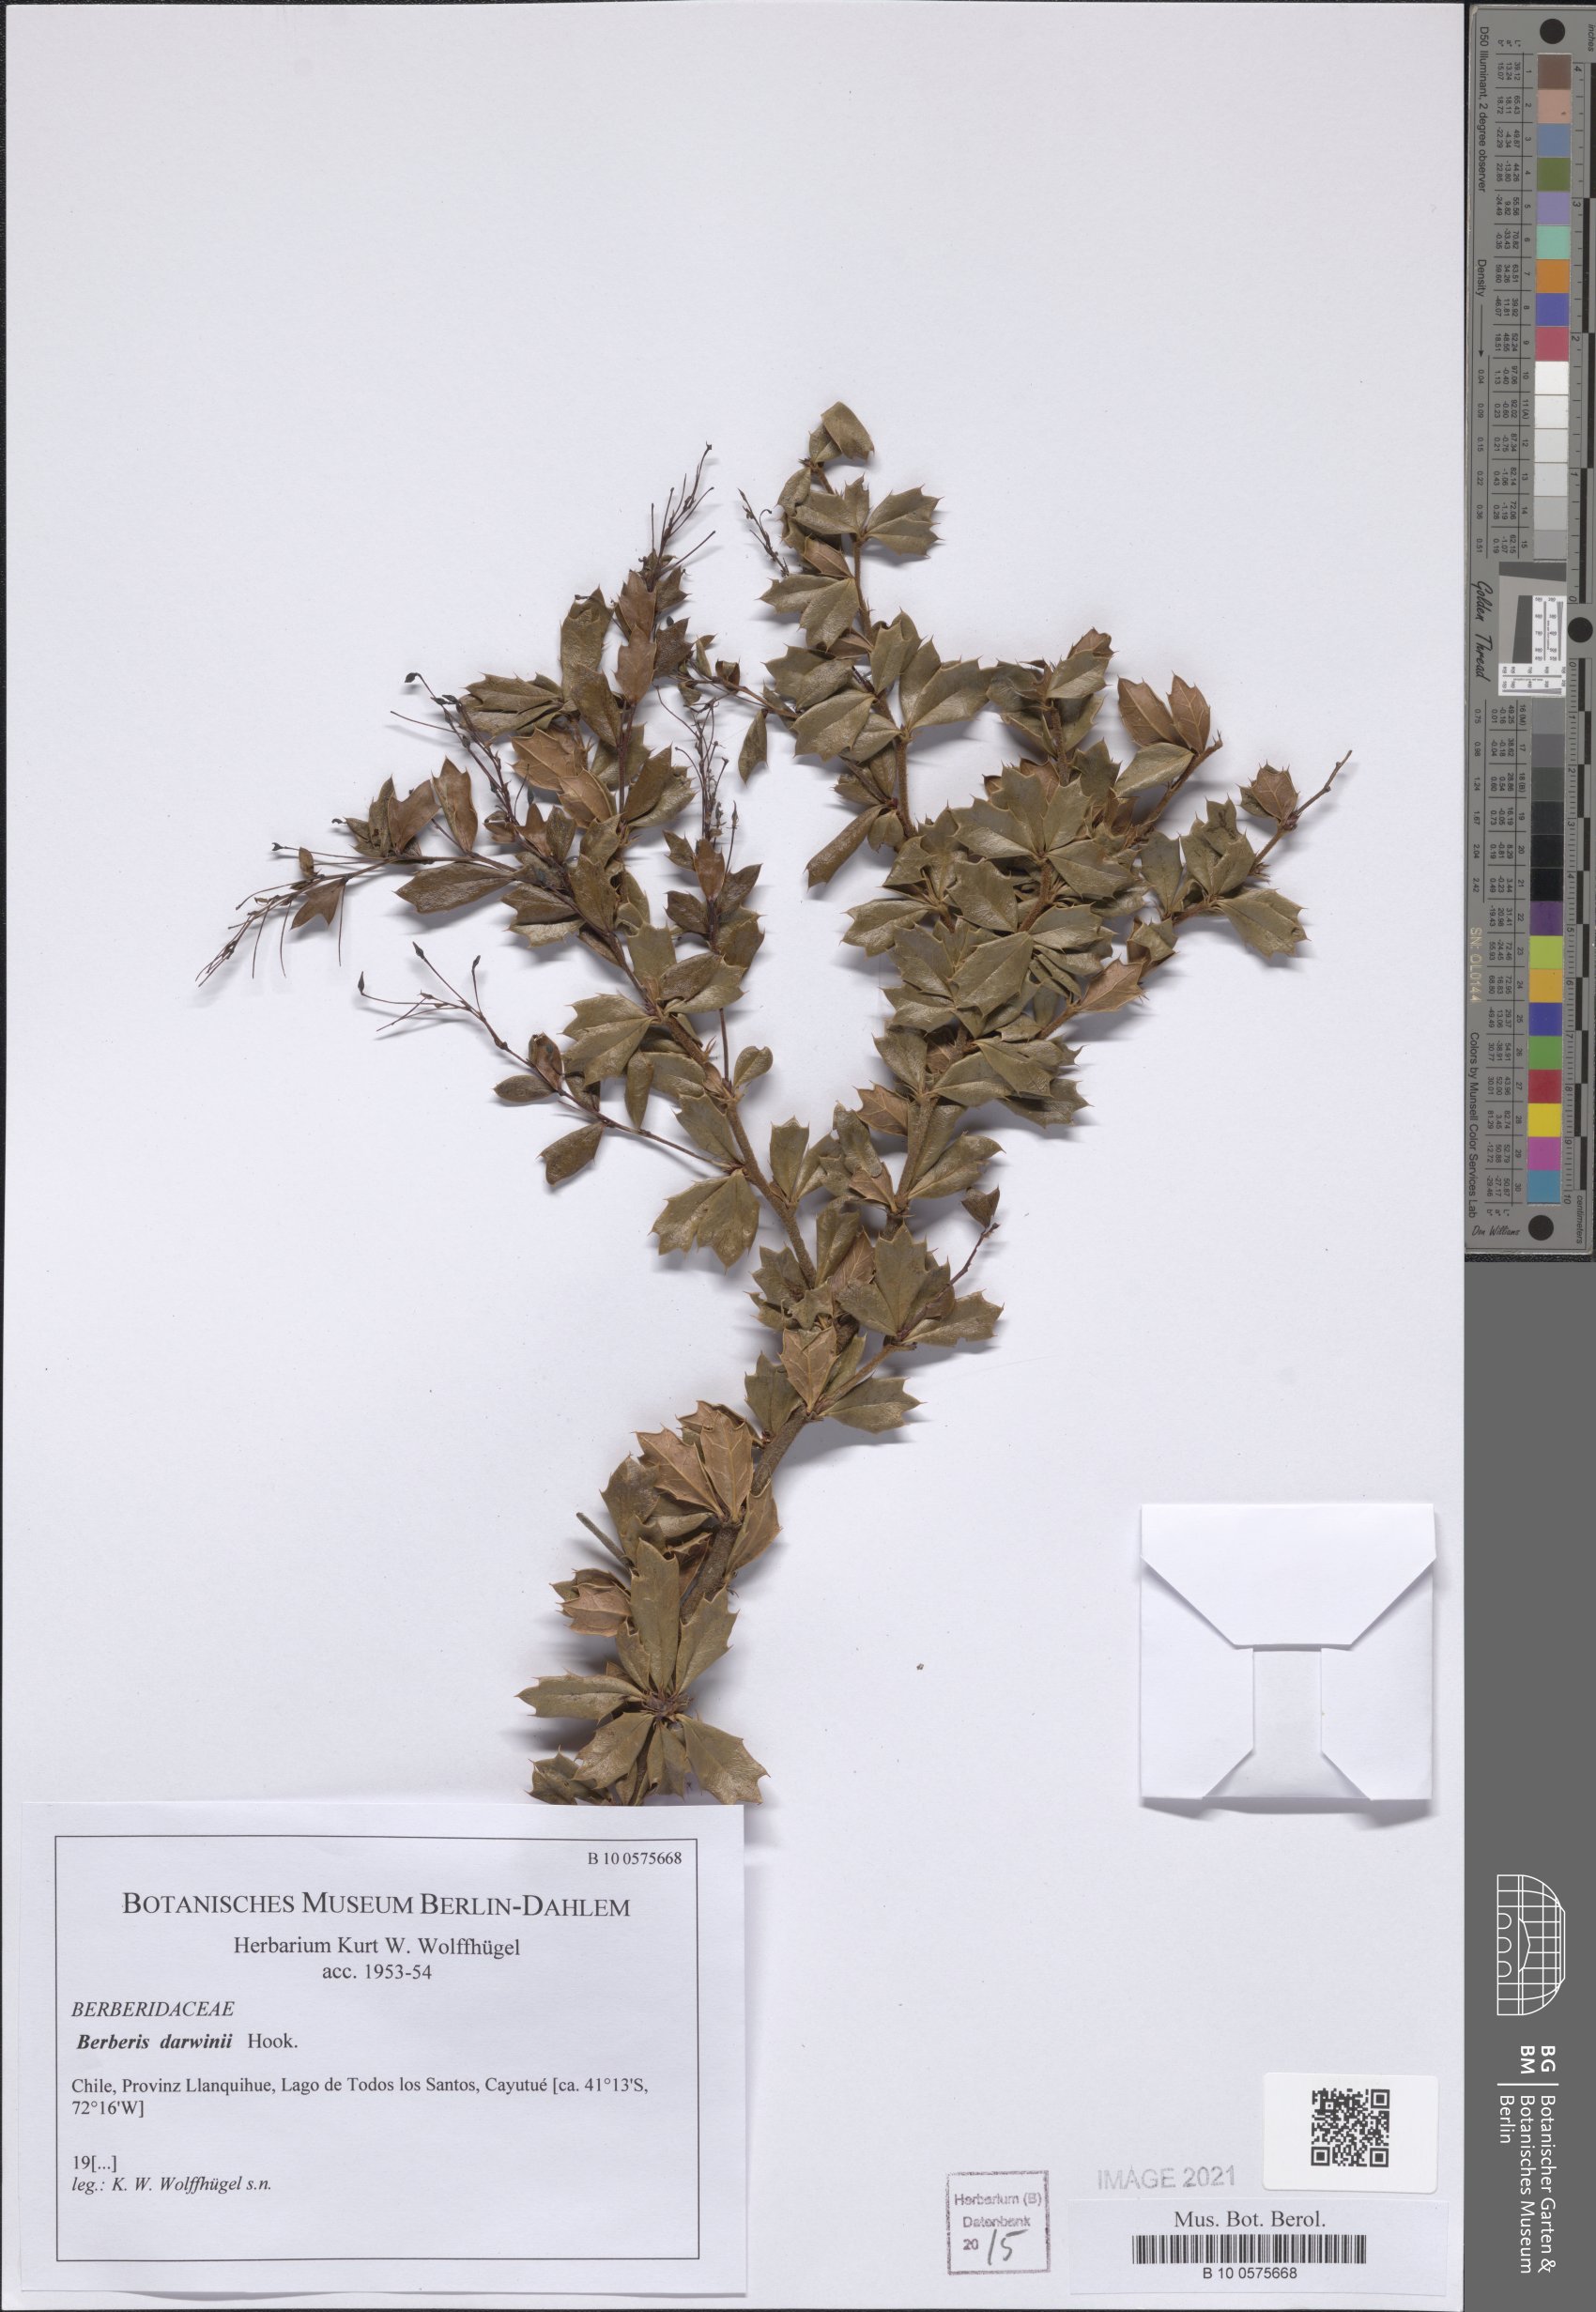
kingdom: Plantae
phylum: Tracheophyta
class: Magnoliopsida
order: Ranunculales
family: Berberidaceae
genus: Berberis
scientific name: Berberis darwinii
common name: Darwin's barberry
